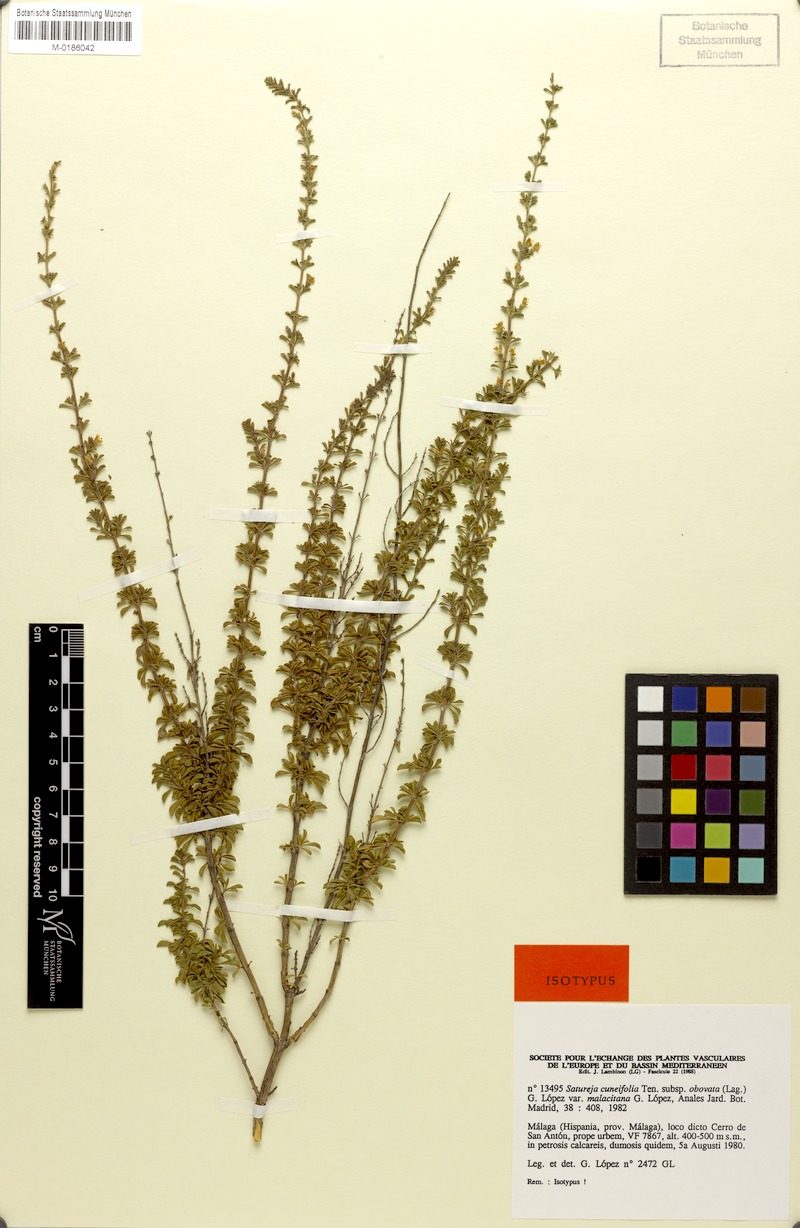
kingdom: Plantae
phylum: Tracheophyta
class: Magnoliopsida
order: Lamiales
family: Lamiaceae
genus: Satureja
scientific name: Satureja intricata
